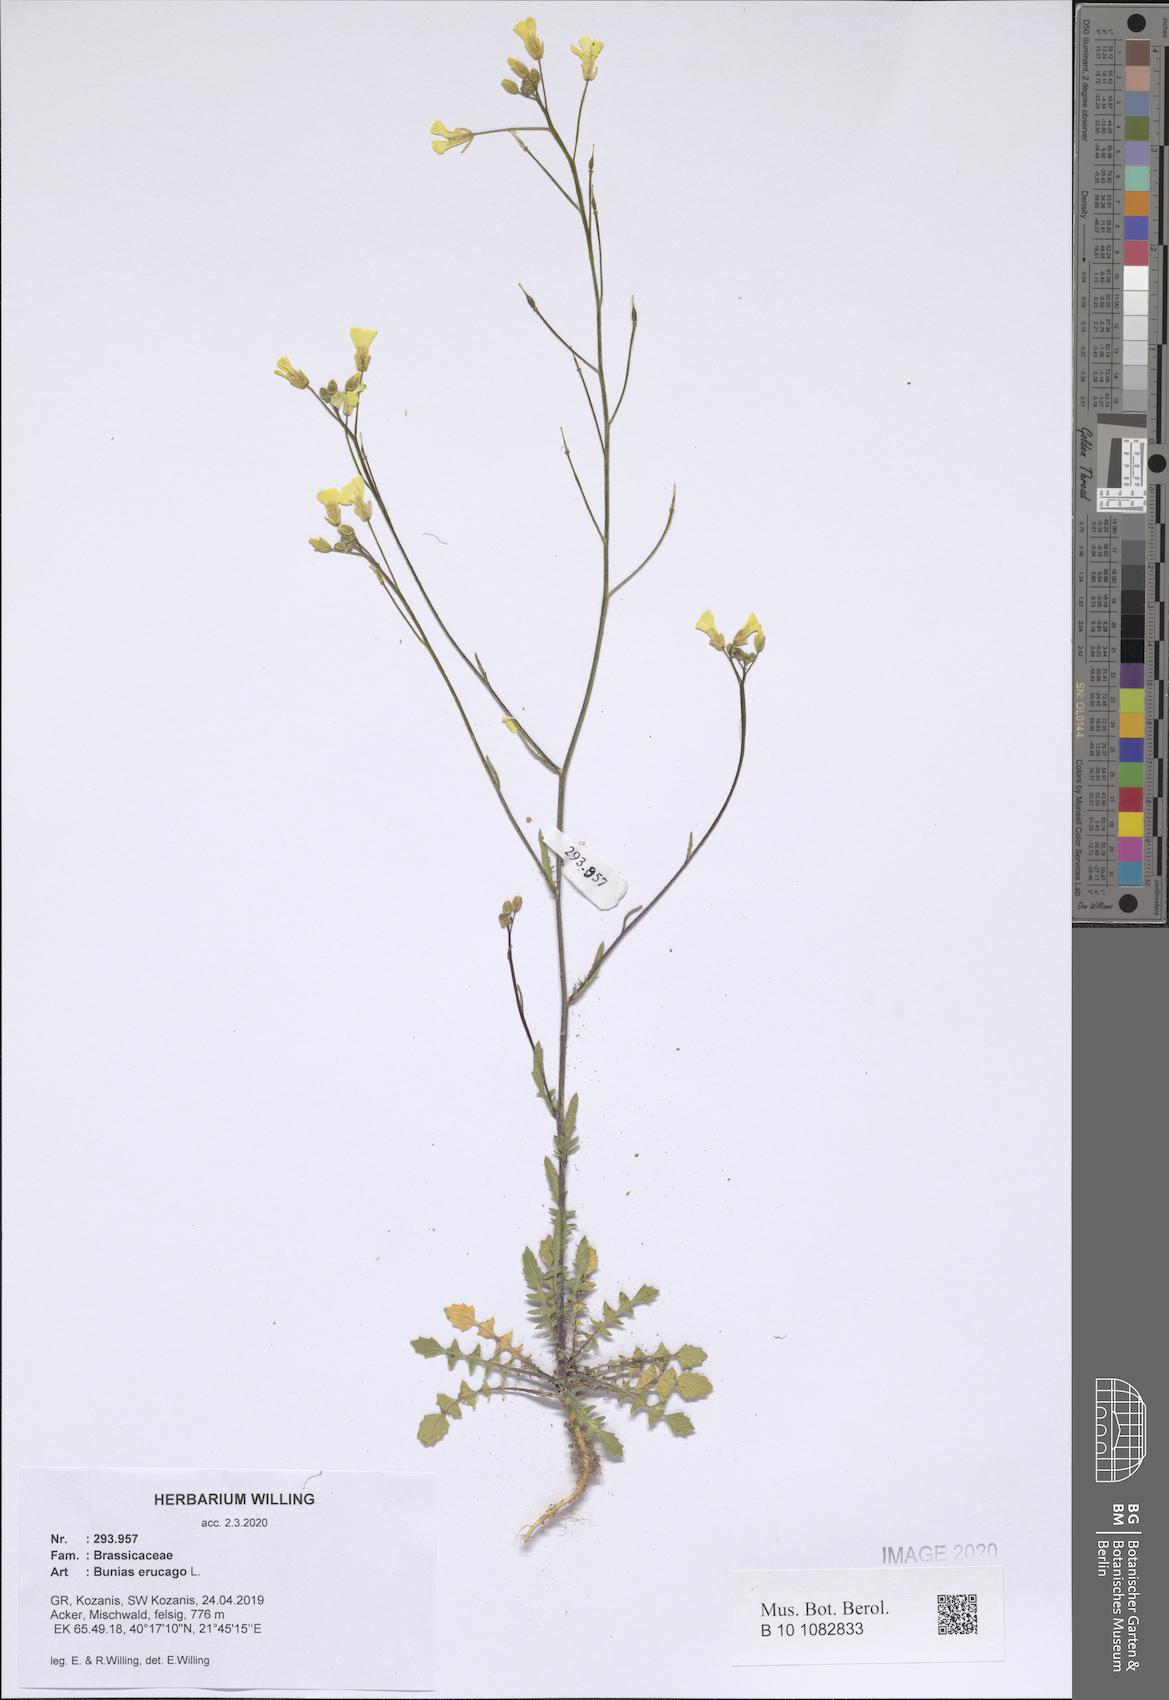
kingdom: Plantae
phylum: Tracheophyta
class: Magnoliopsida
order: Brassicales
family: Brassicaceae
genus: Bunias
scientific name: Bunias erucago
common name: Southern warty-cabbage
